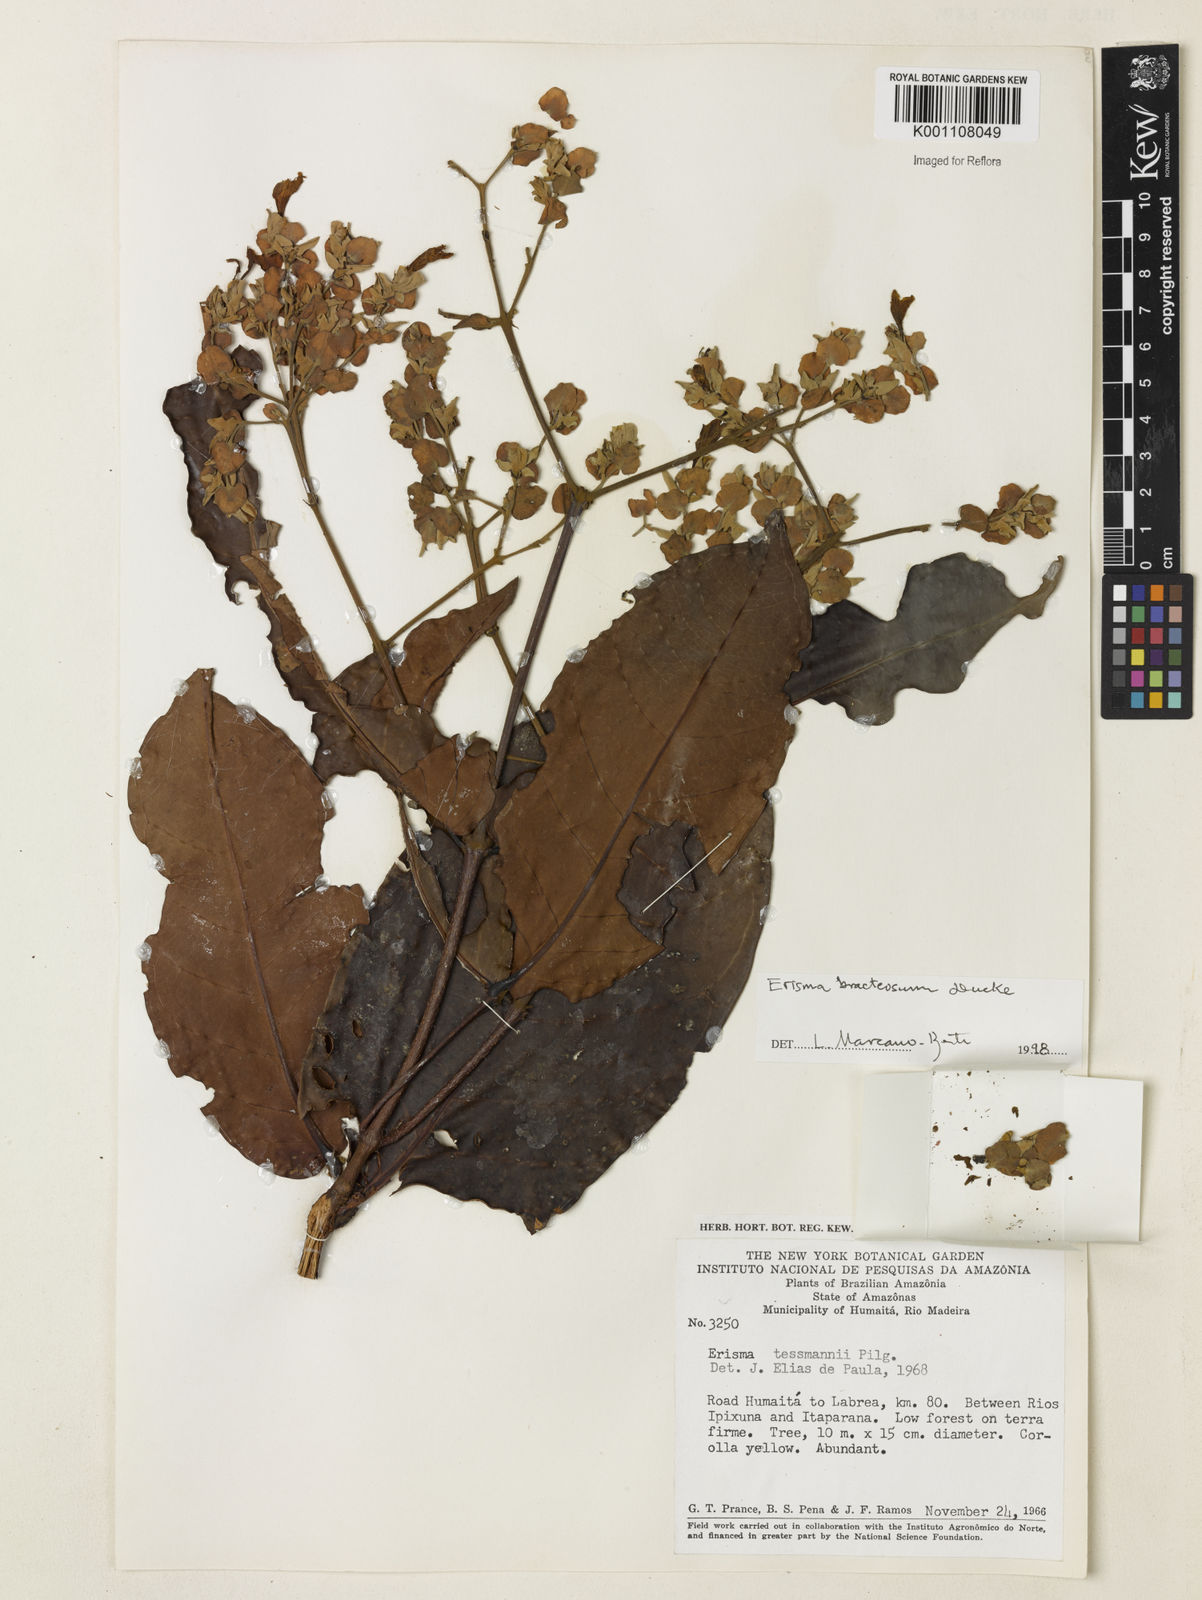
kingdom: Plantae
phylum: Tracheophyta
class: Magnoliopsida
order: Myrtales
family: Vochysiaceae
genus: Erisma
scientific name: Erisma bracteosum
